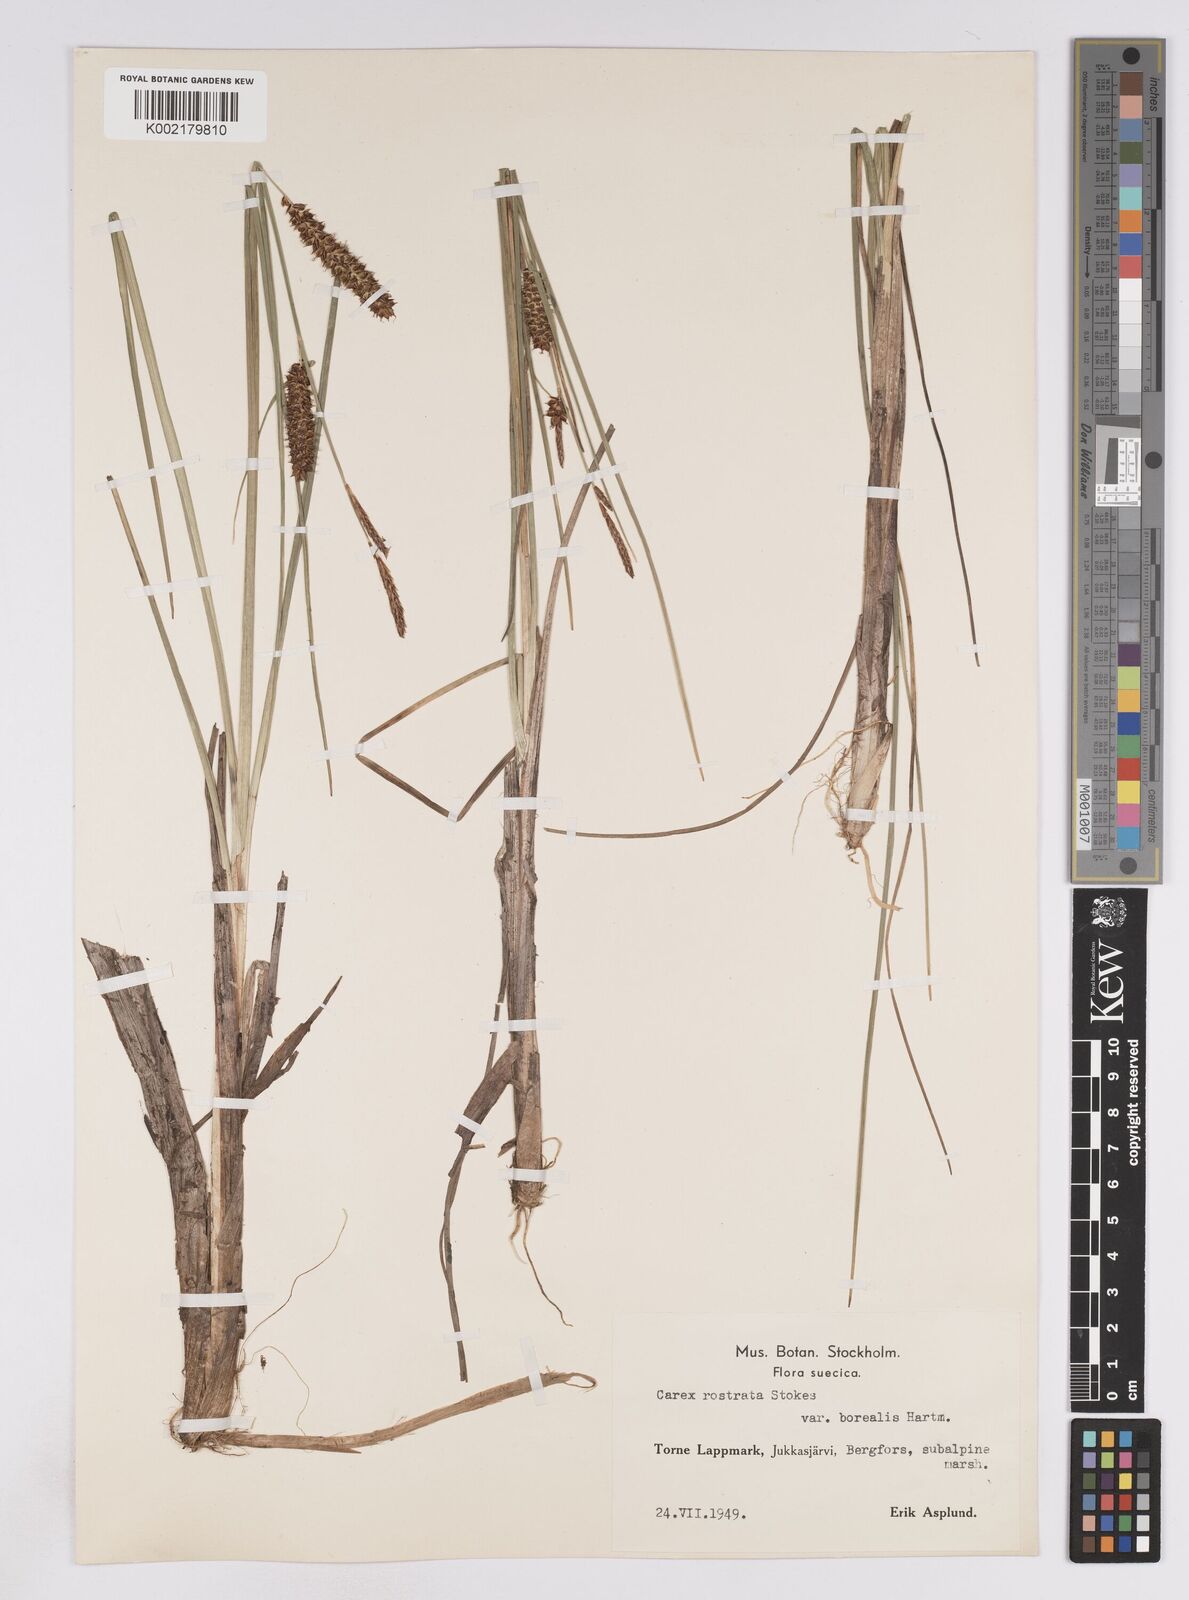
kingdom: Plantae
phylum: Tracheophyta
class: Liliopsida
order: Poales
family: Cyperaceae
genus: Carex
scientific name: Carex rostrata
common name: Bottle sedge
